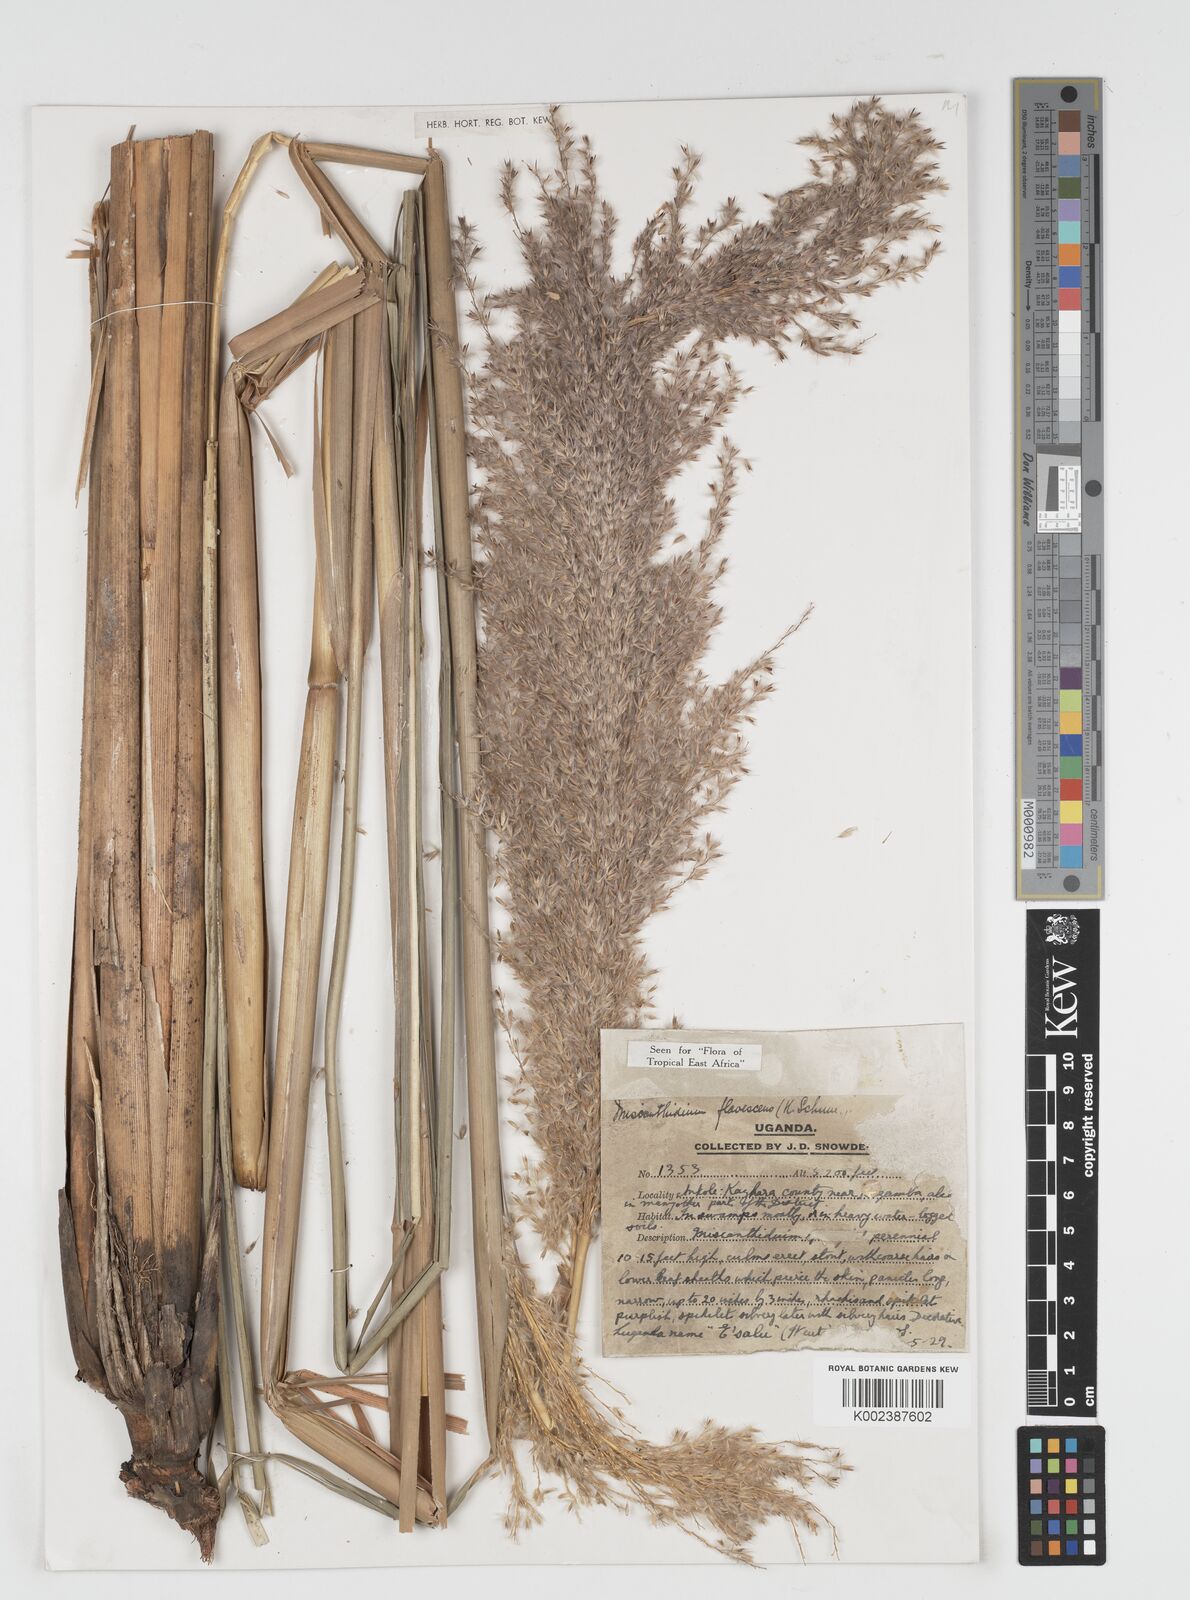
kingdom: Plantae
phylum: Tracheophyta
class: Liliopsida
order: Poales
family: Poaceae
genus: Miscanthidium
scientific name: Miscanthidium violaceum
